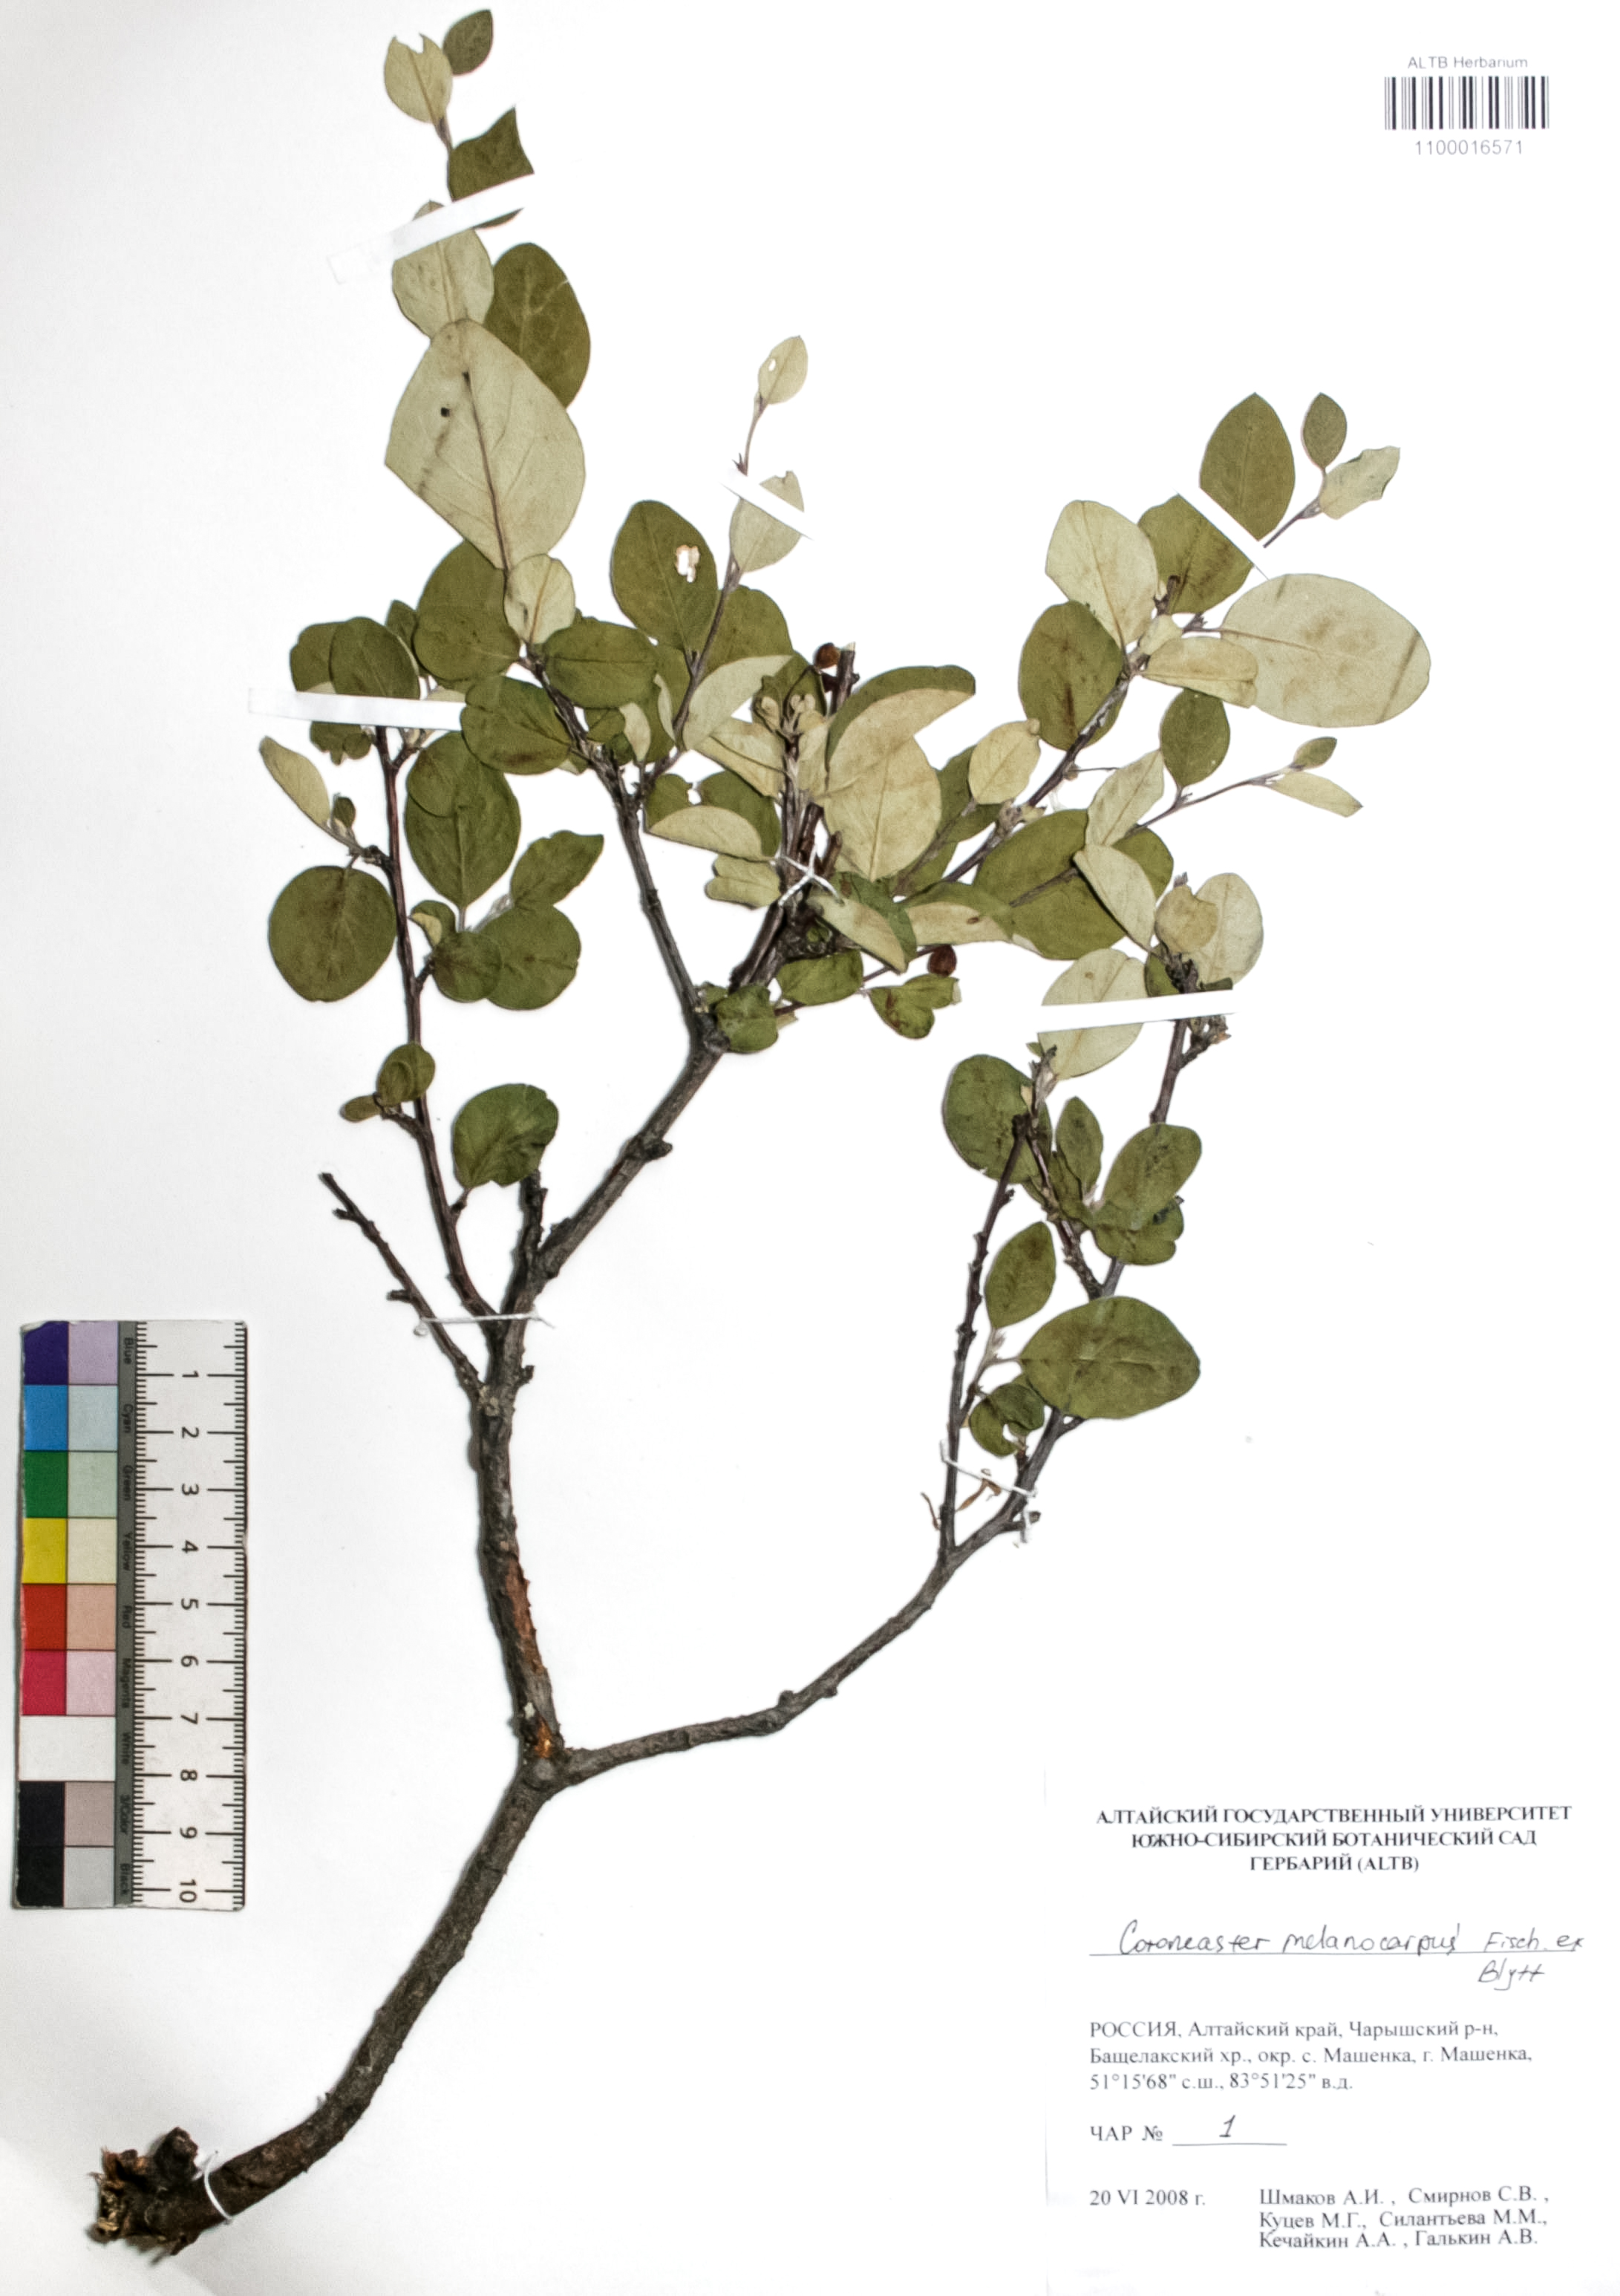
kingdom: Plantae
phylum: Tracheophyta
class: Magnoliopsida
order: Rosales
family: Rosaceae
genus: Cotoneaster
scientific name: Cotoneaster niger
